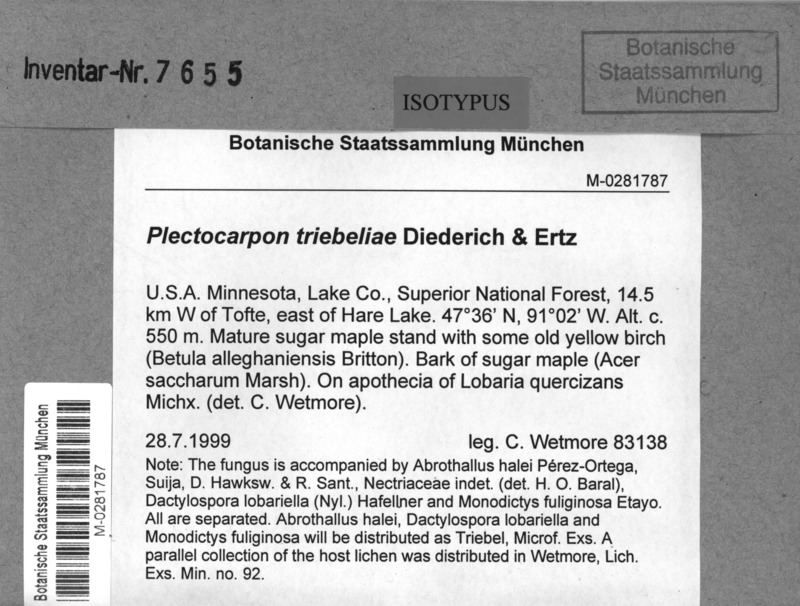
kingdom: Fungi
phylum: Ascomycota
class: Lecanoromycetes
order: Peltigerales
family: Lobariaceae
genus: Ricasolia
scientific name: Ricasolia quercizans
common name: Smooth lungwort
